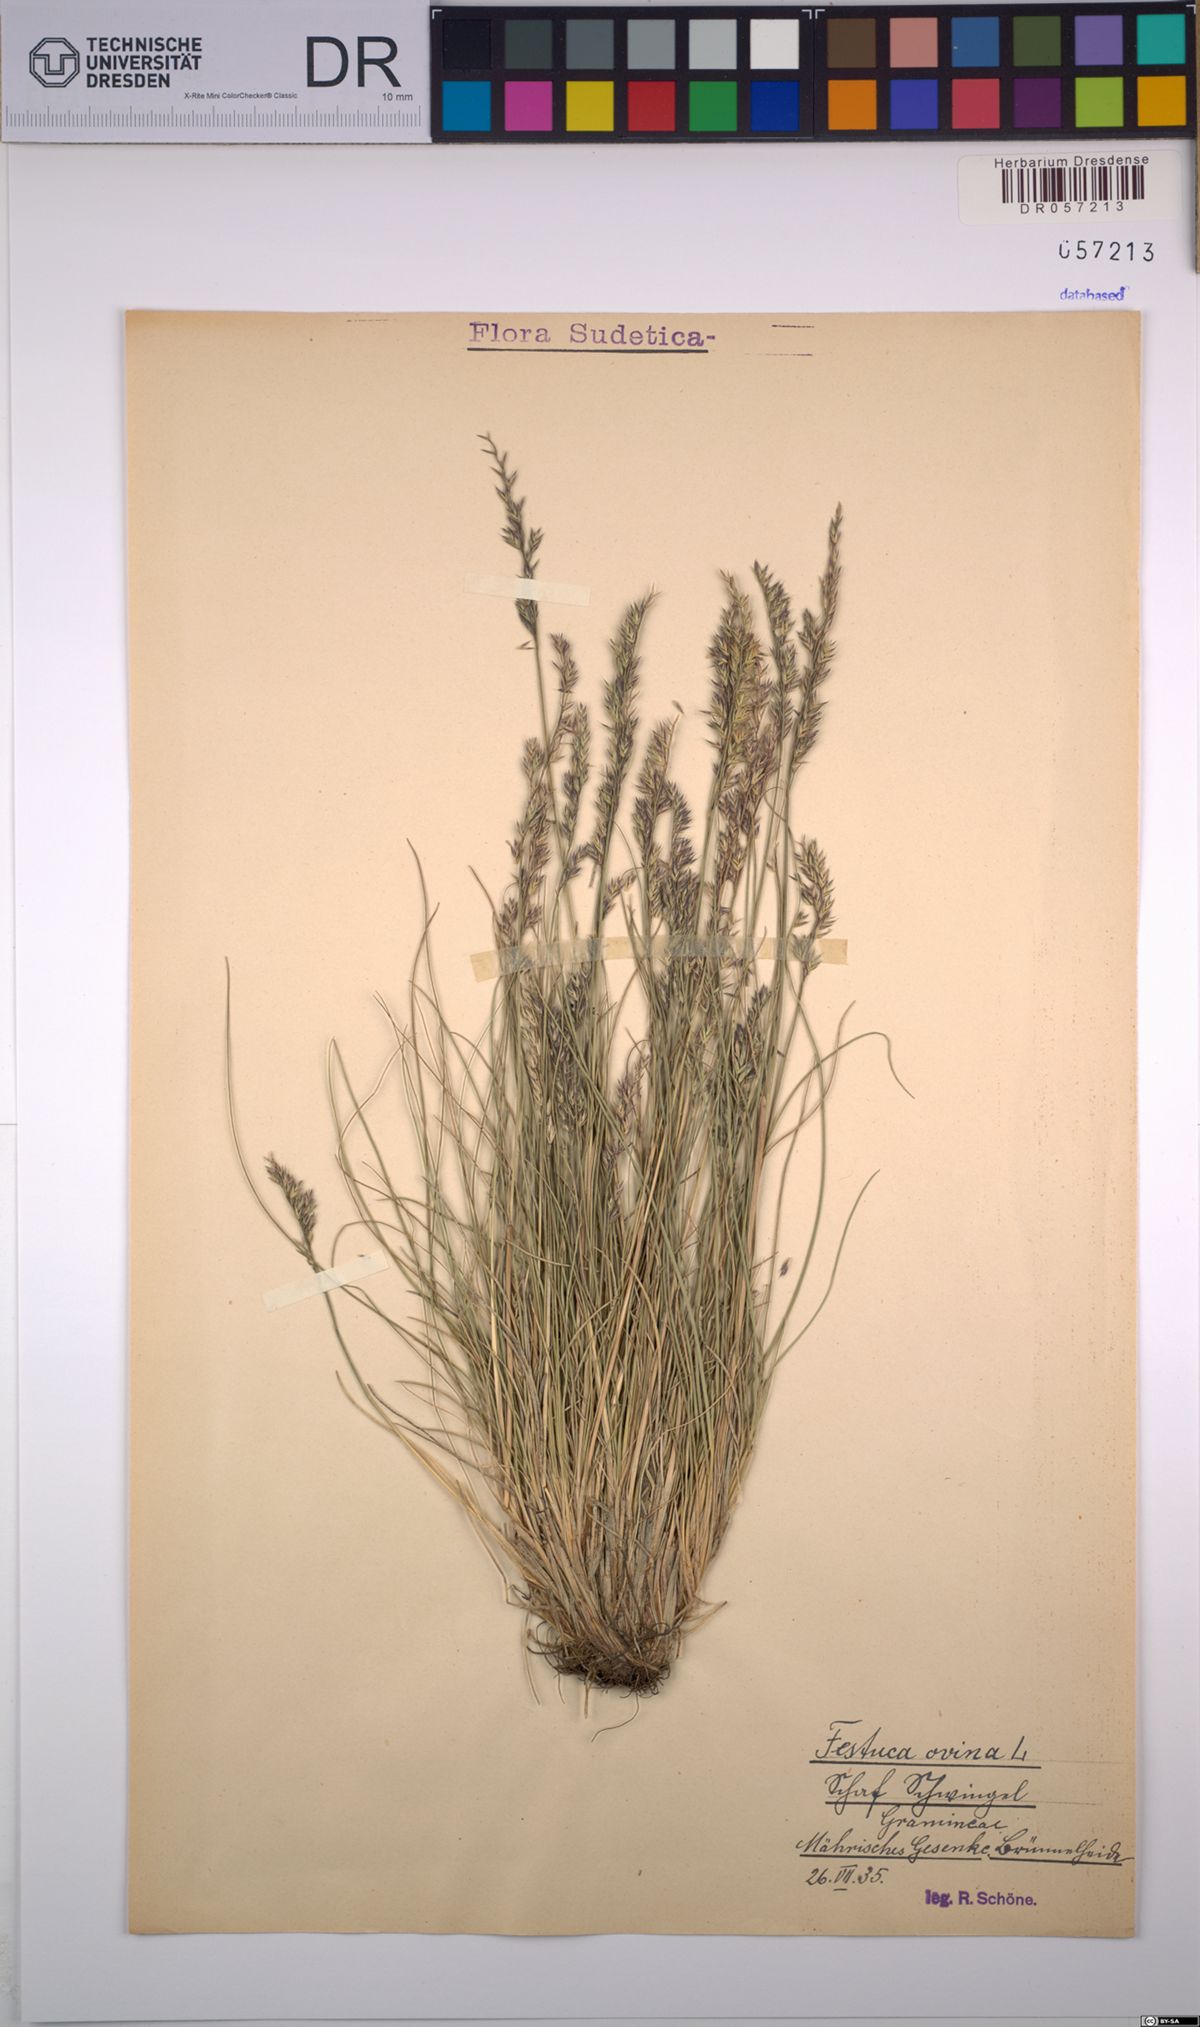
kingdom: Plantae
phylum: Tracheophyta
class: Liliopsida
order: Poales
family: Poaceae
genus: Festuca
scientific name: Festuca ovina
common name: Sheep fescue
